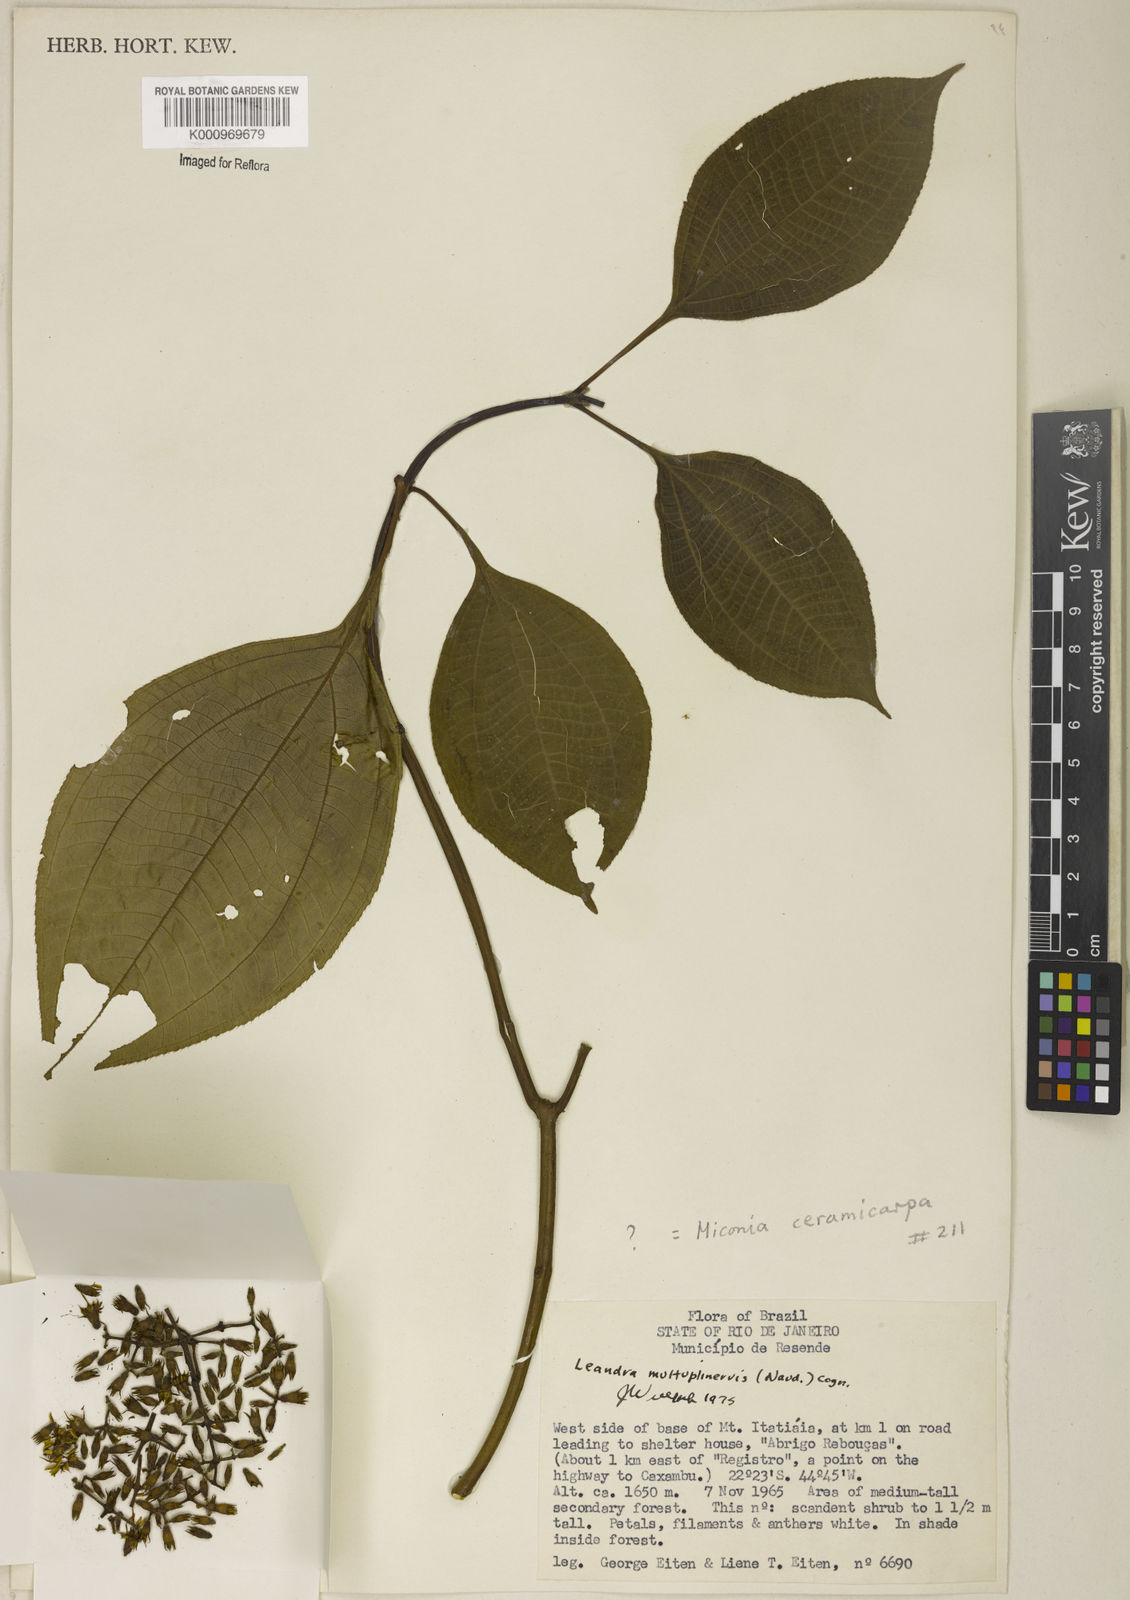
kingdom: Plantae
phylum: Tracheophyta
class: Magnoliopsida
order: Myrtales
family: Melastomataceae
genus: Miconia
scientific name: Miconia oocarpa
